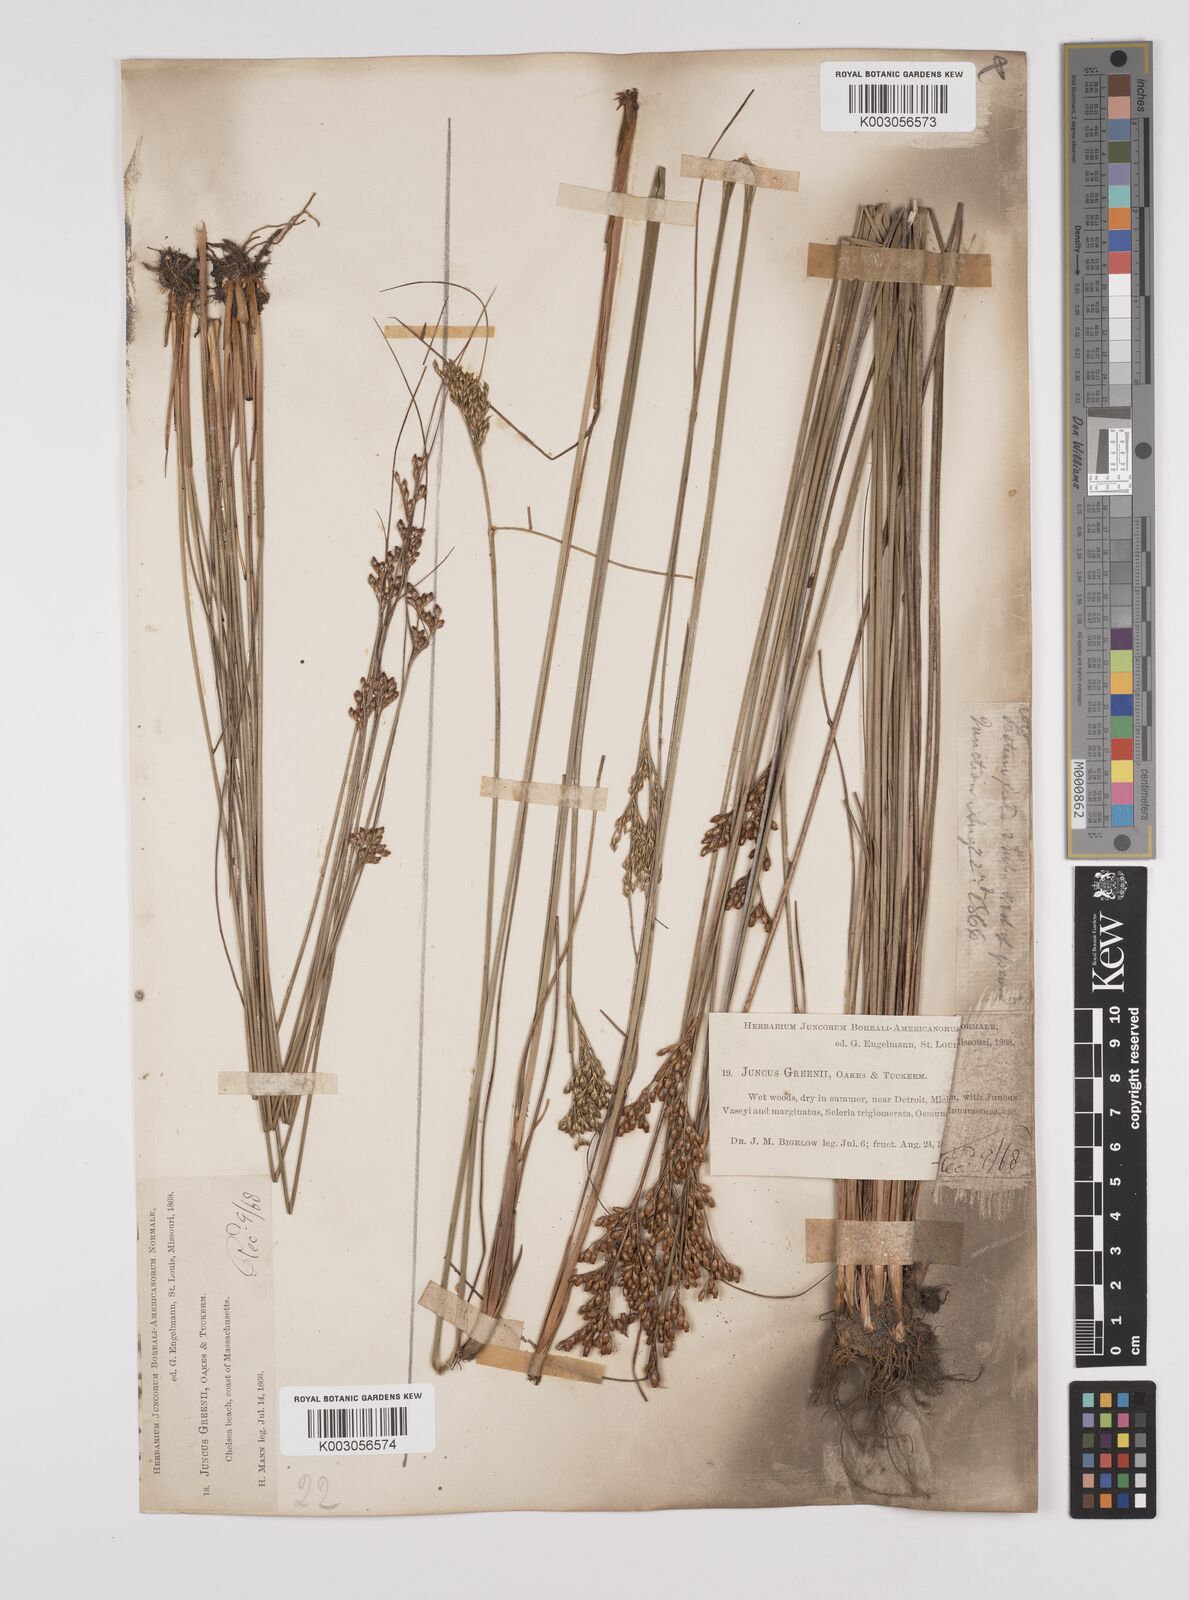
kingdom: Plantae
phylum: Tracheophyta
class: Liliopsida
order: Poales
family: Juncaceae
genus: Juncus
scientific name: Juncus greenei
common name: Greene's rush
